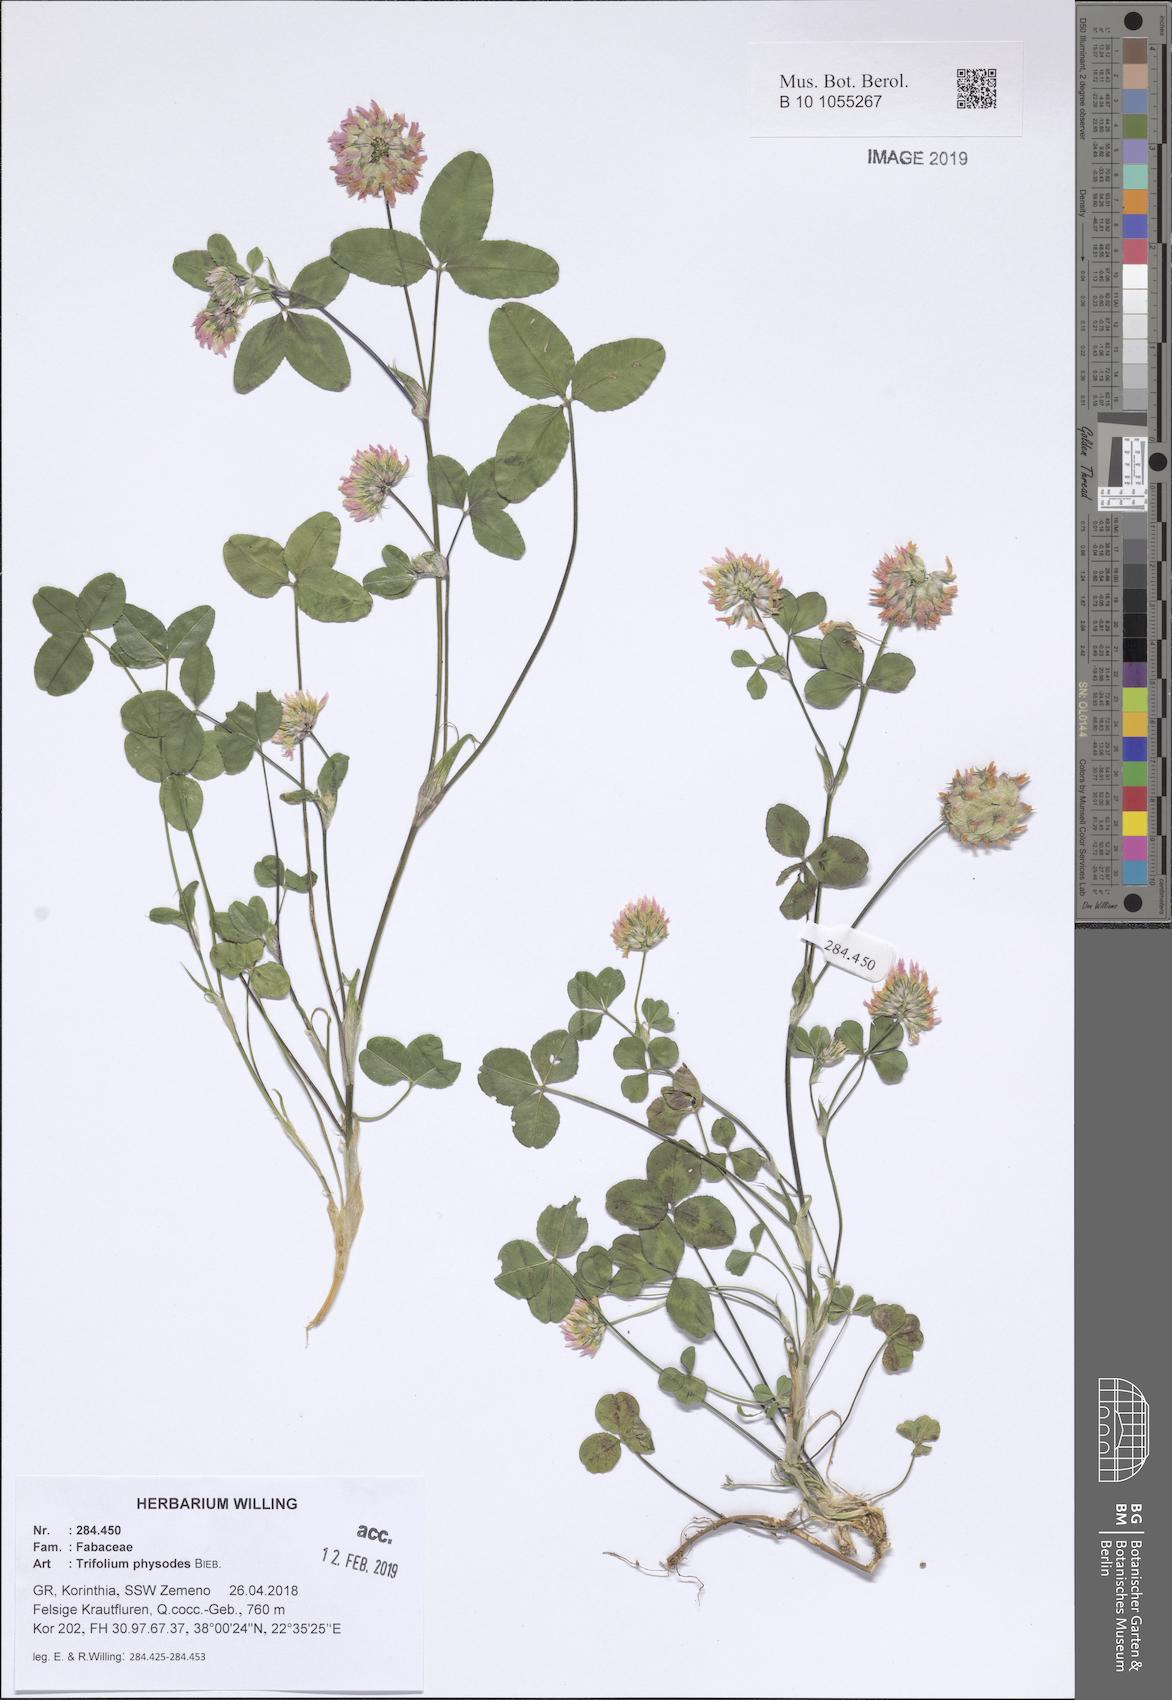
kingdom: Plantae
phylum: Tracheophyta
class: Magnoliopsida
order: Fabales
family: Fabaceae
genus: Trifolium
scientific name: Trifolium physodes
